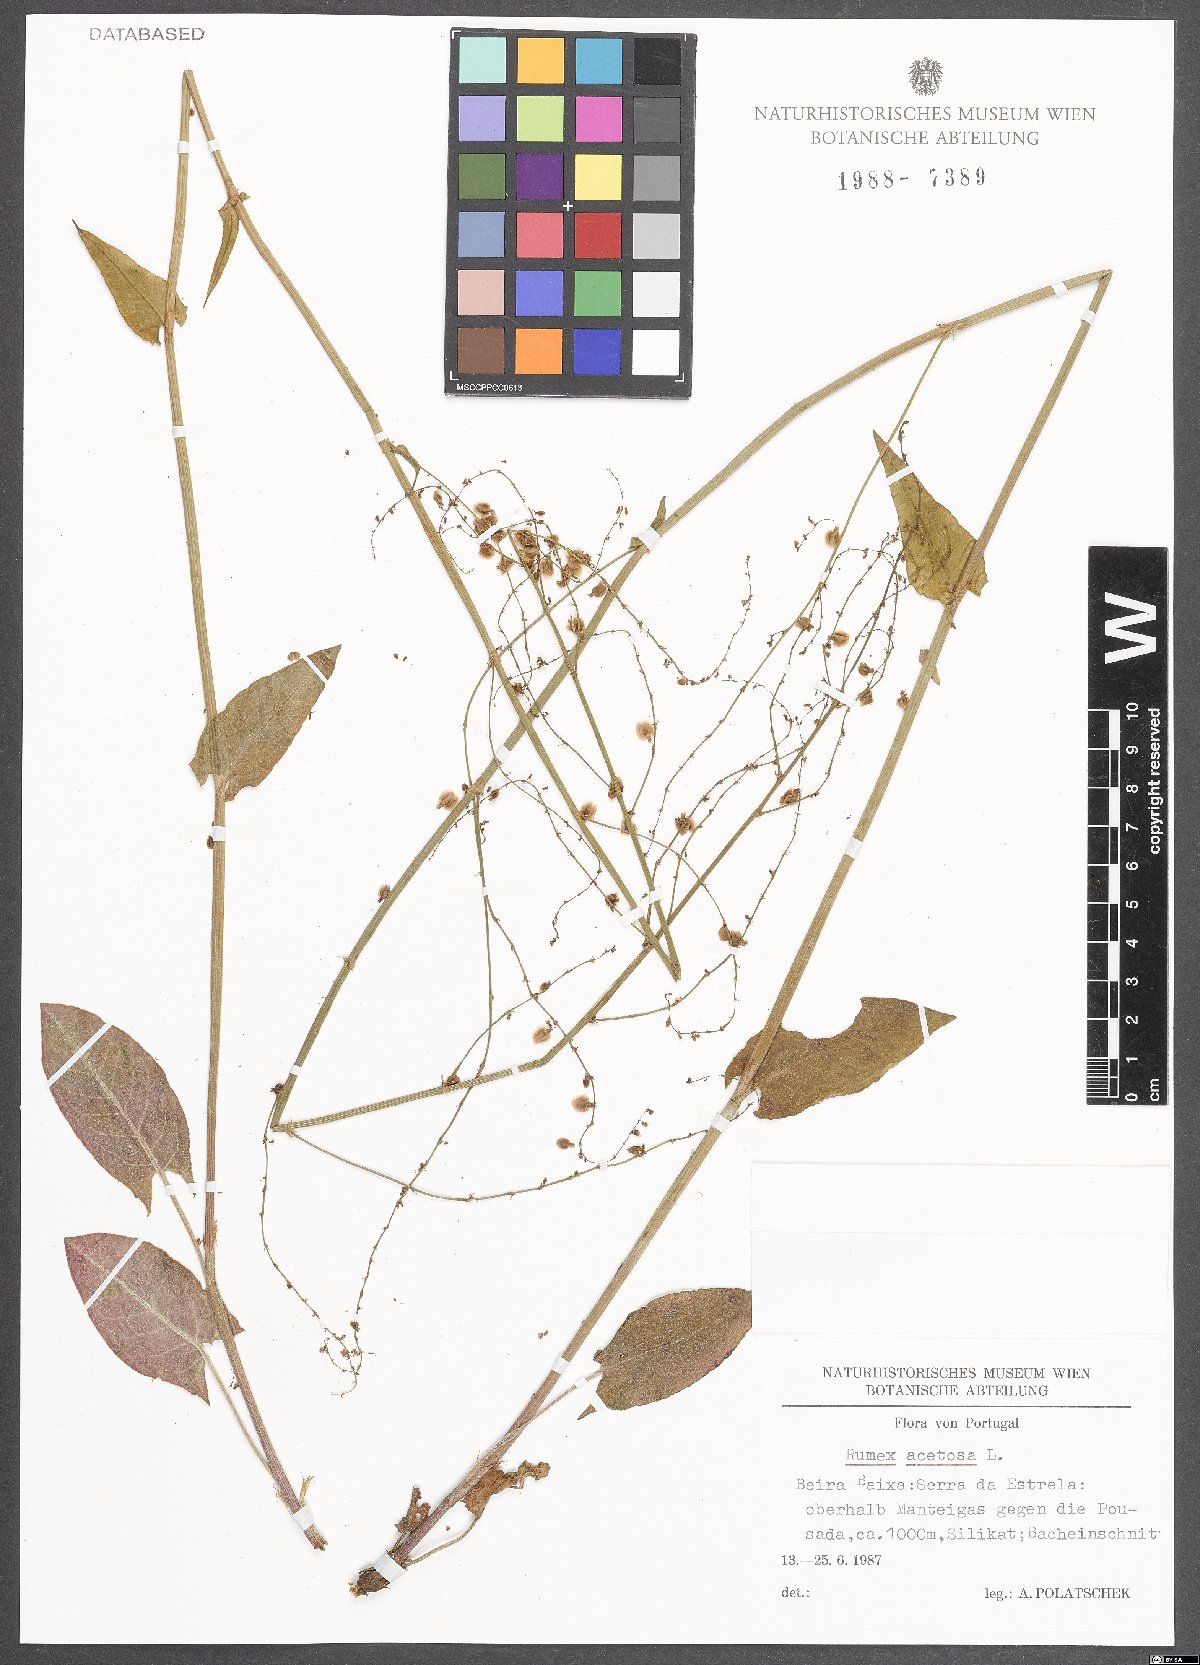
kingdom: Plantae
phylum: Tracheophyta
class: Magnoliopsida
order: Caryophyllales
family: Polygonaceae
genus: Rumex
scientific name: Rumex acetosa
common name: Garden sorrel
